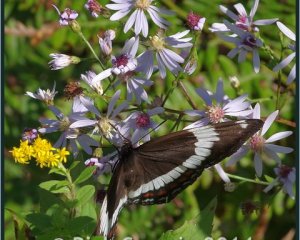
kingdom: Animalia
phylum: Arthropoda
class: Insecta
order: Lepidoptera
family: Nymphalidae
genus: Limenitis
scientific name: Limenitis arthemis
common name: Red-spotted Admiral
